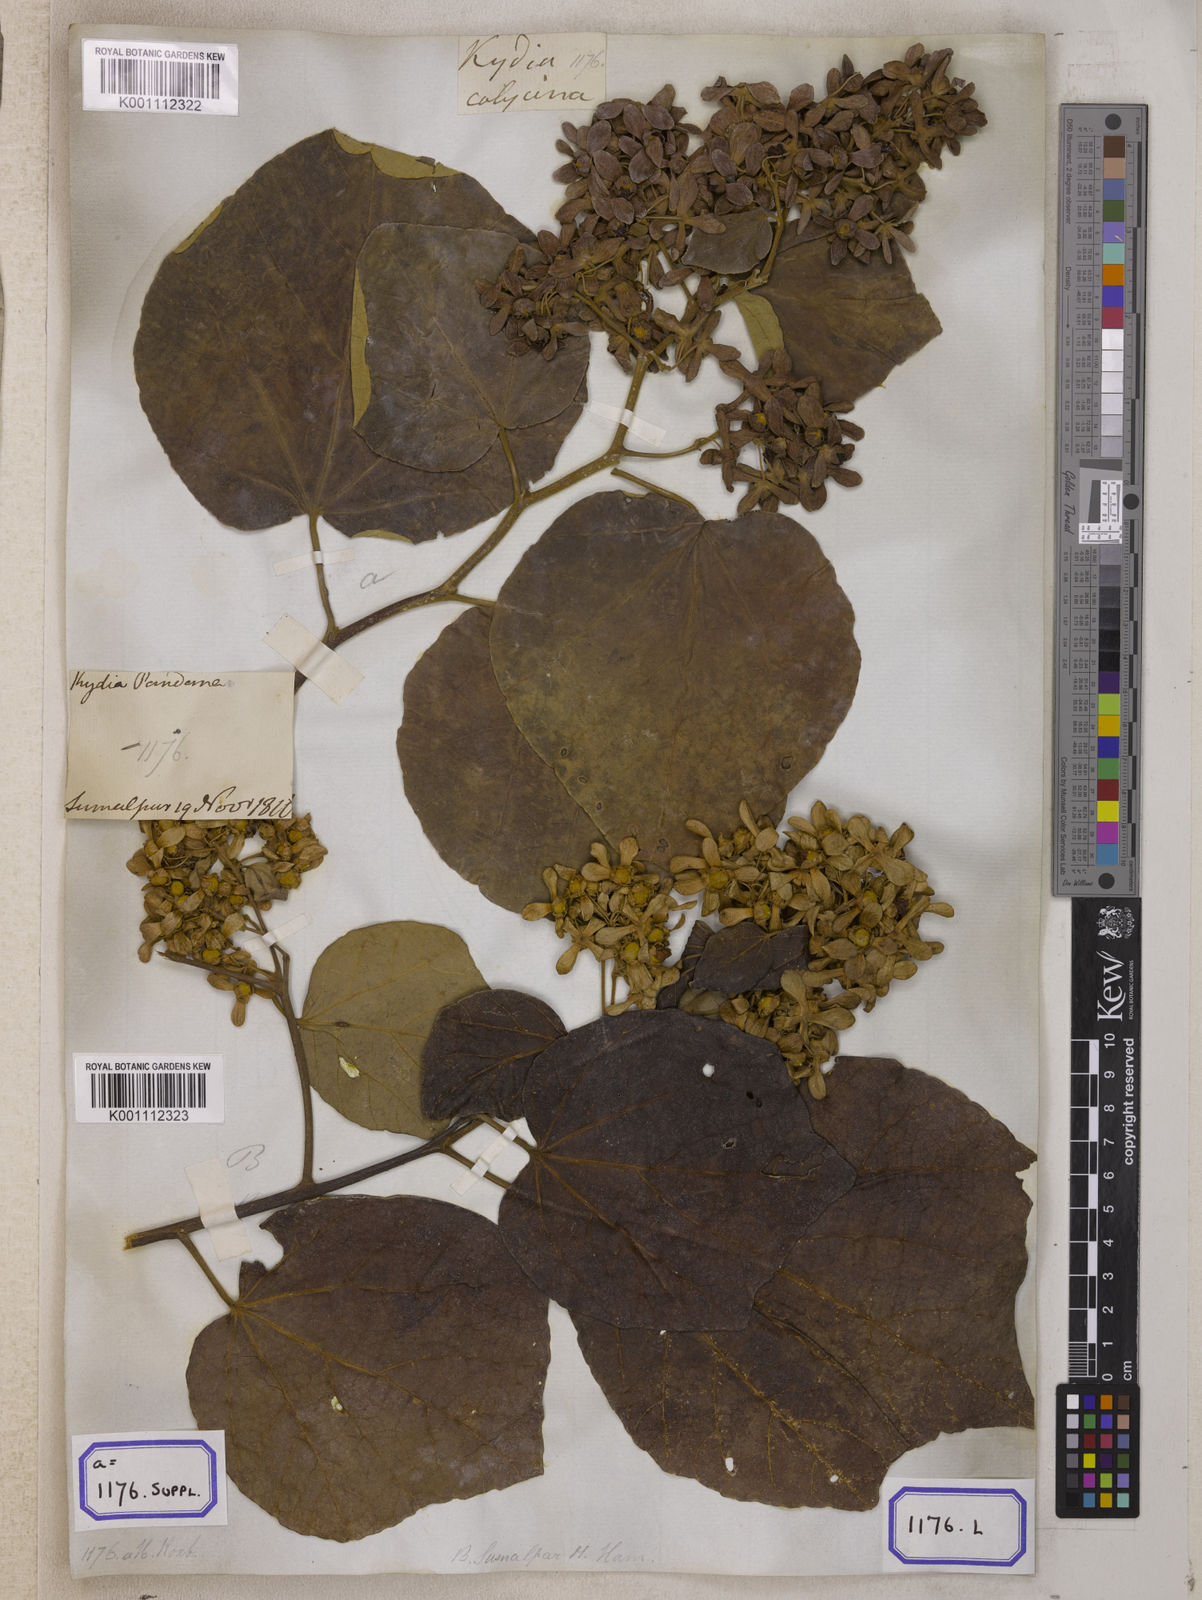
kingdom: Plantae
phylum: Tracheophyta
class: Magnoliopsida
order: Malvales
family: Malvaceae
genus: Kydia
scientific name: Kydia calycina
